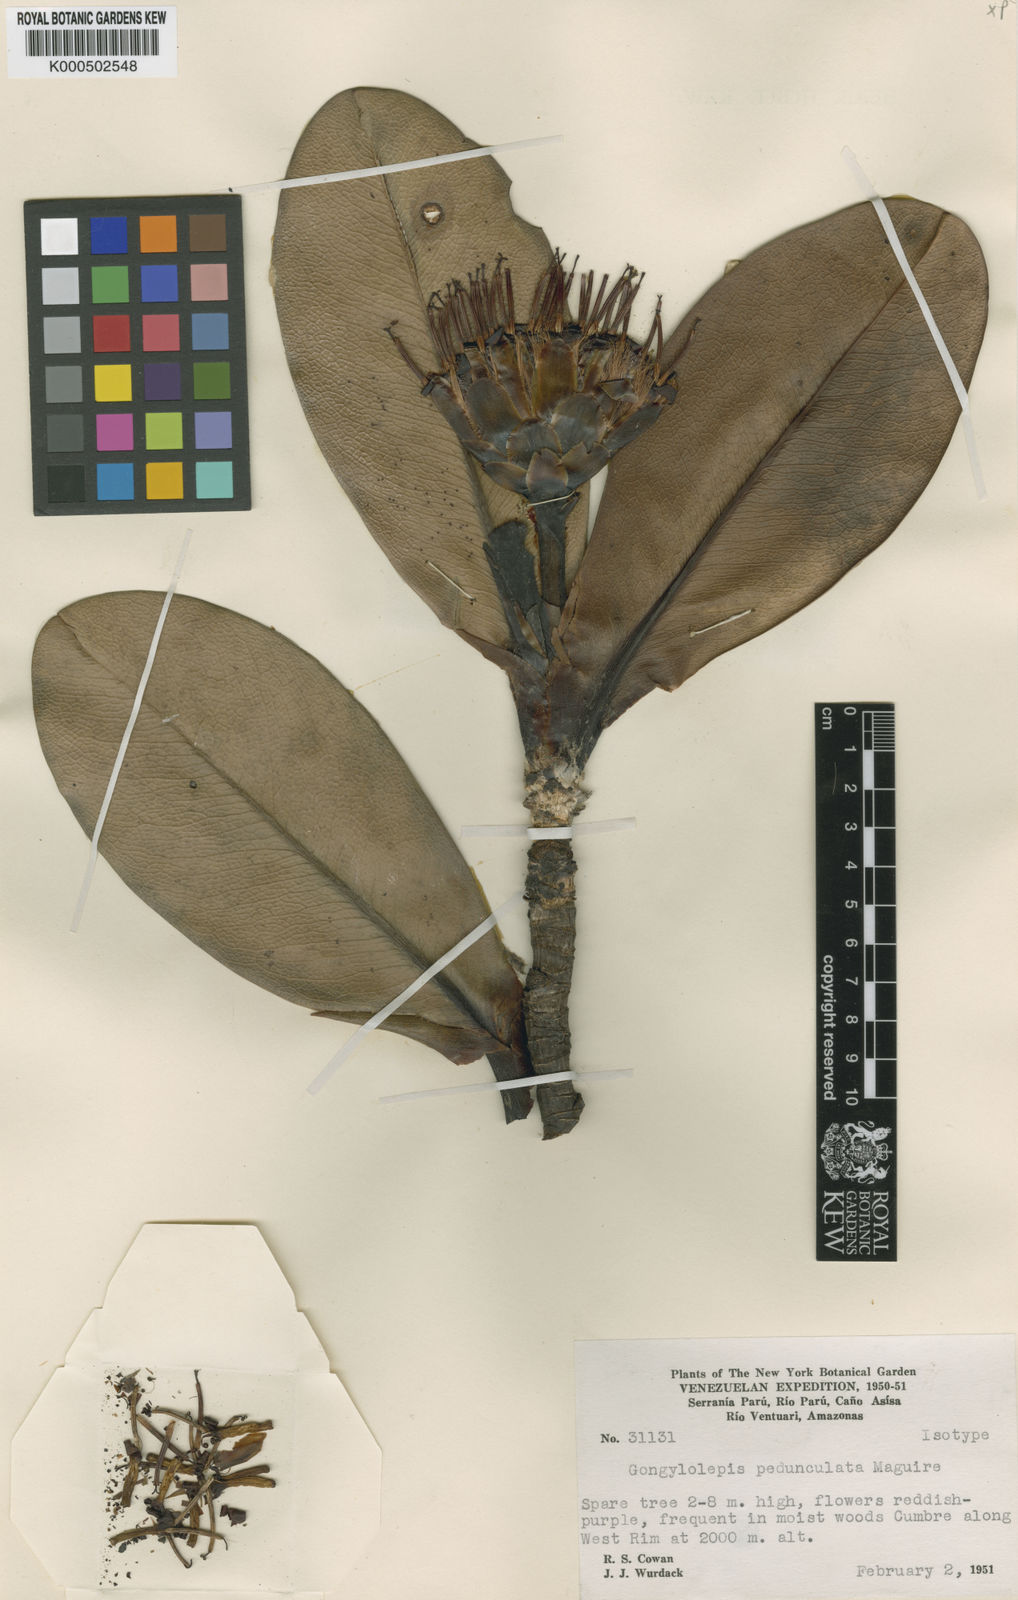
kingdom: Plantae
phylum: Tracheophyta
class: Magnoliopsida
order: Asterales
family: Asteraceae
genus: Gongylolepis
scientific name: Gongylolepis pedunculata
